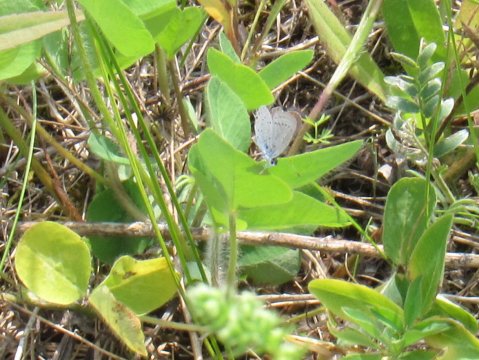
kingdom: Animalia
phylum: Arthropoda
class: Insecta
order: Lepidoptera
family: Lycaenidae
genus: Elkalyce
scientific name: Elkalyce comyntas
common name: Eastern Tailed-Blue
